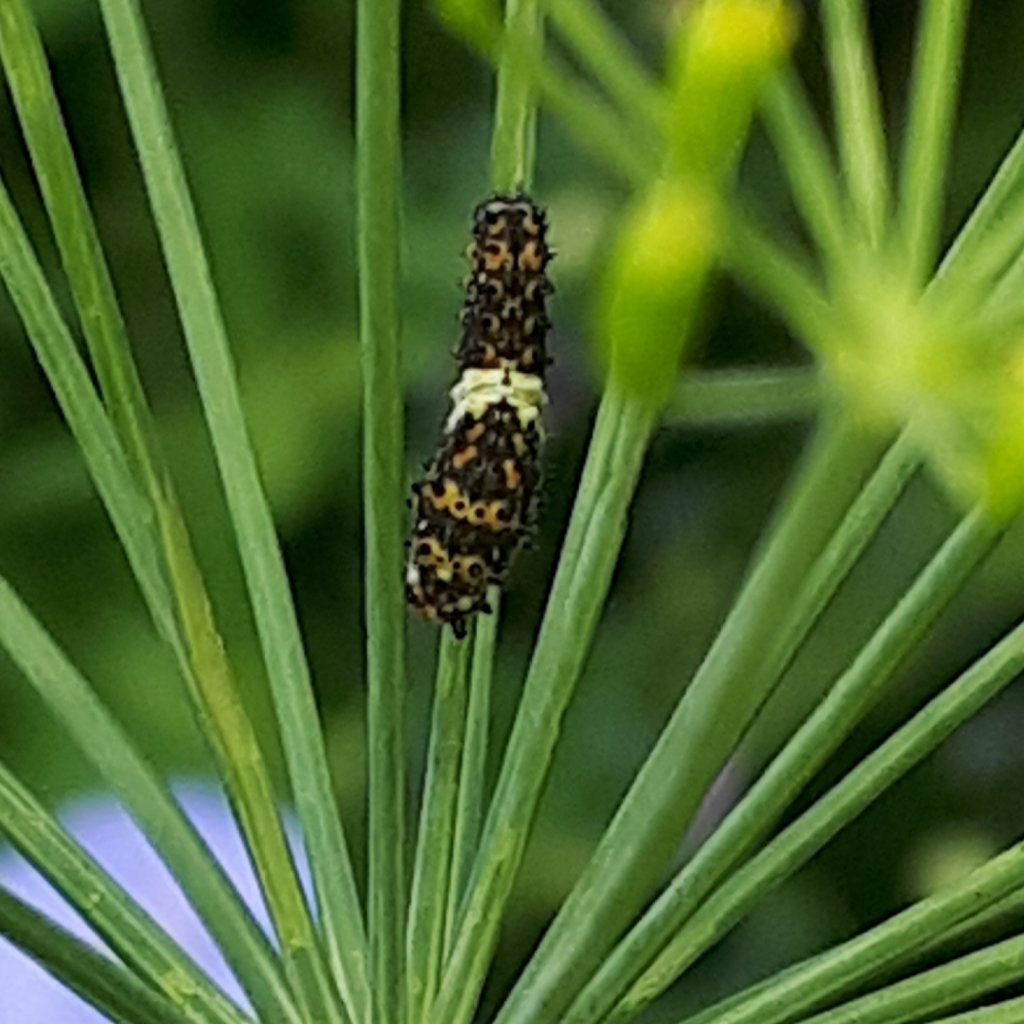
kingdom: Animalia
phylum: Arthropoda
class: Insecta
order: Lepidoptera
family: Papilionidae
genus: Papilio
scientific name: Papilio polyxenes
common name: Black Swallowtail
